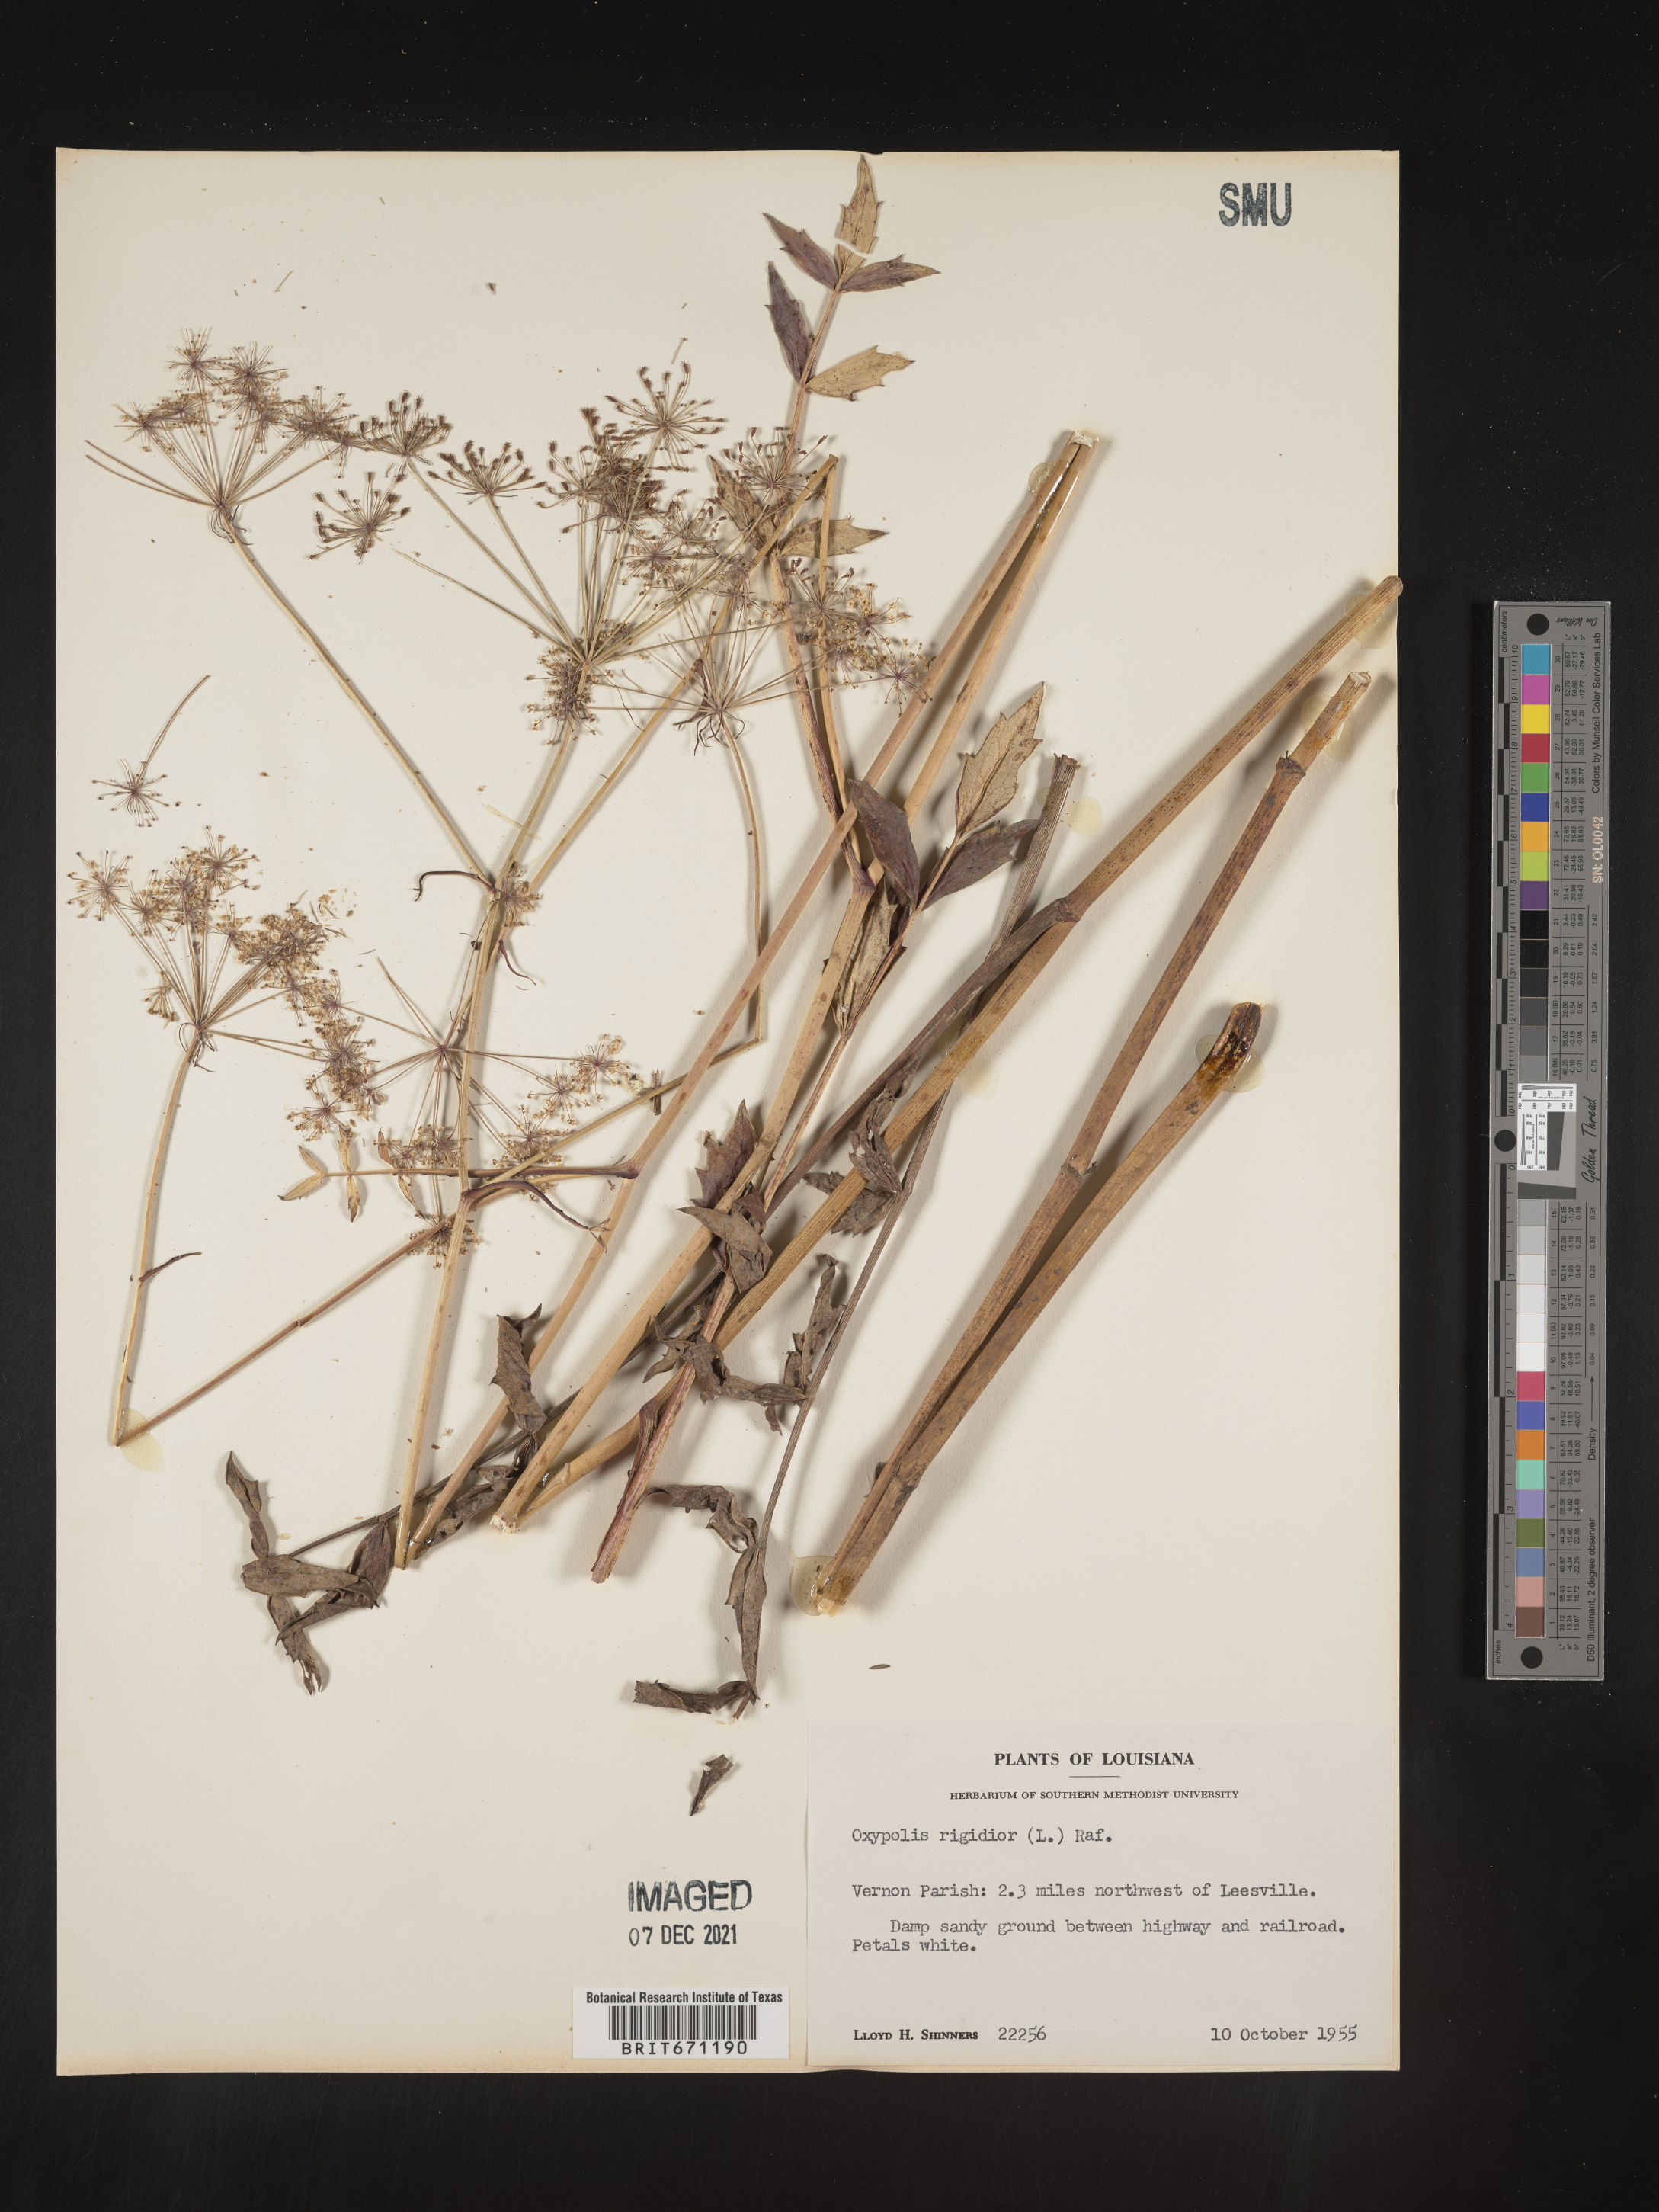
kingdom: Plantae
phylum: Tracheophyta
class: Magnoliopsida
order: Apiales
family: Apiaceae
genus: Oxypolis
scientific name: Oxypolis rigidior
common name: Cowbane
